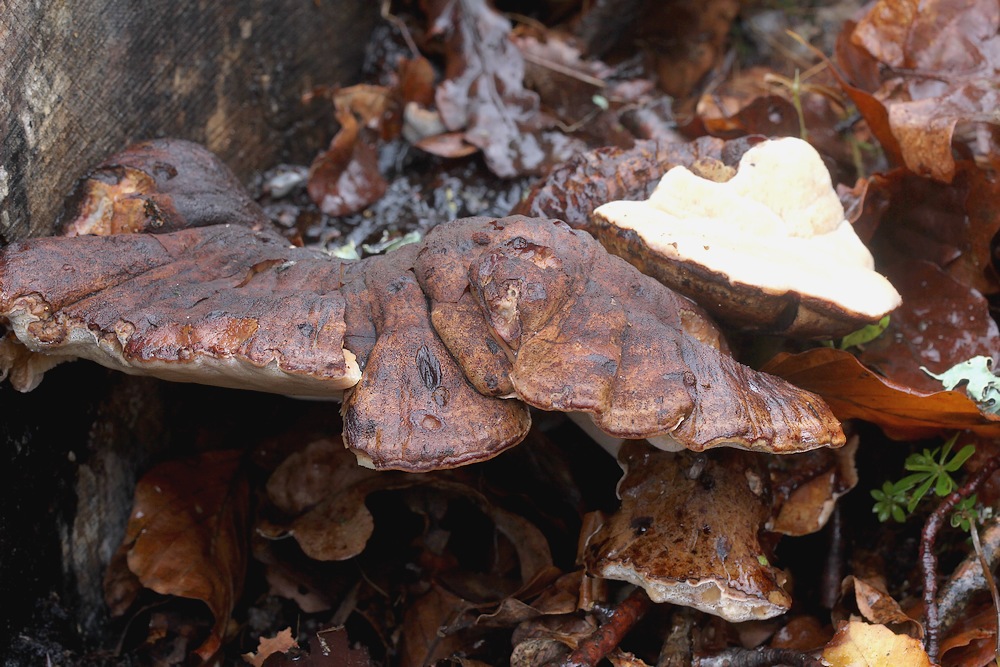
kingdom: Fungi
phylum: Basidiomycota
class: Agaricomycetes
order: Polyporales
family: Ischnodermataceae
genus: Ischnoderma
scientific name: Ischnoderma resinosum
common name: løv-tjæreporesvamp
